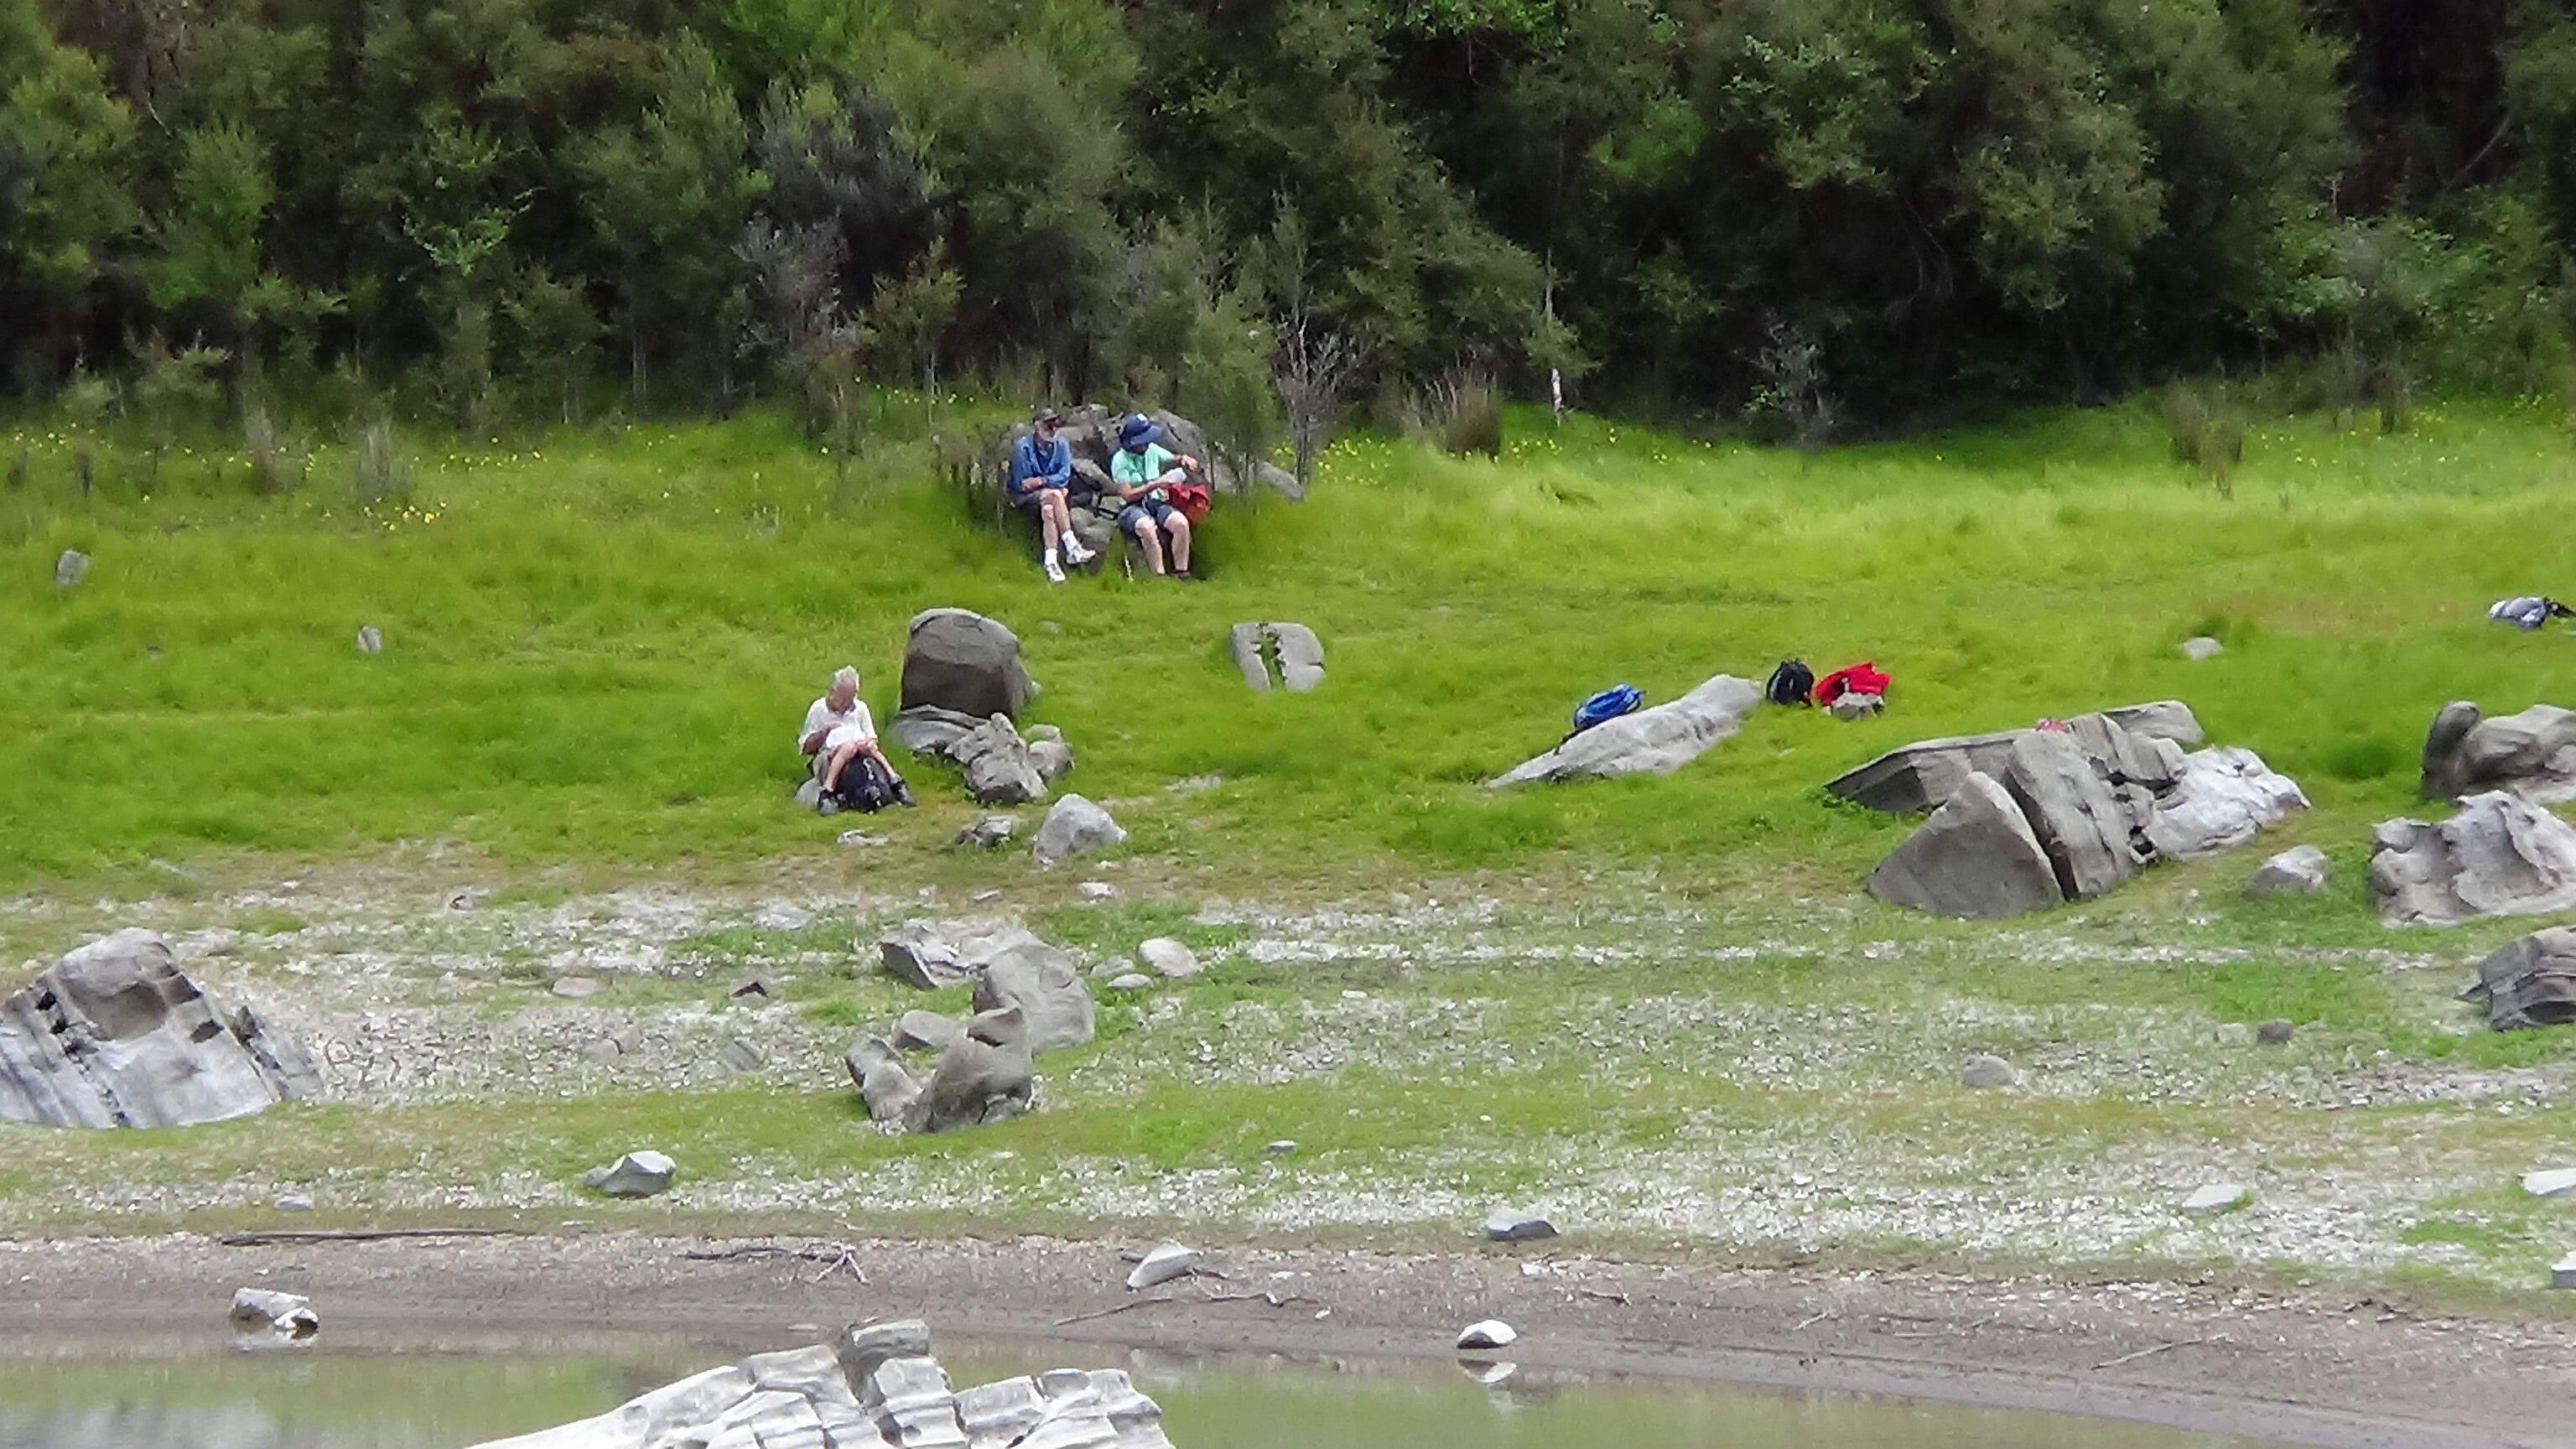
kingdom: Plantae
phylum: Tracheophyta
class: Magnoliopsida
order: Caryophyllales
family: Polygonaceae
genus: Polygonum
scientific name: Polygonum plebeium
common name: Common knotweed
